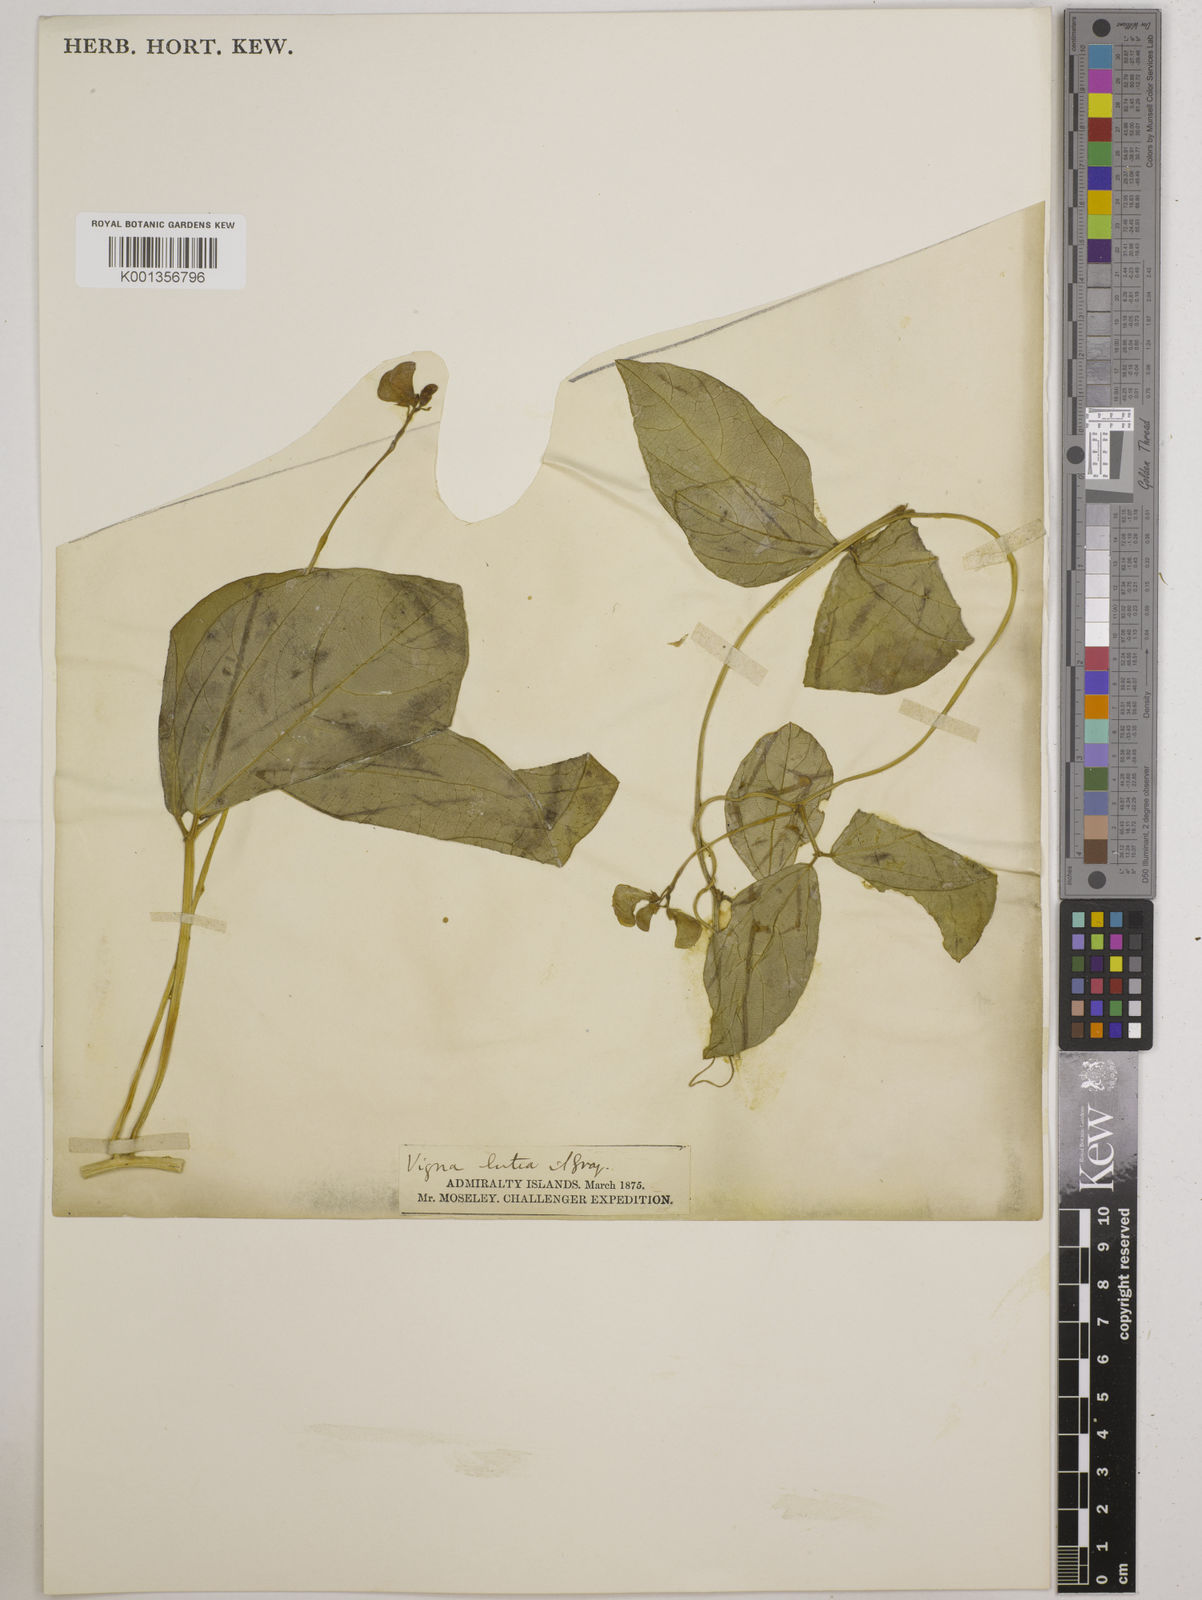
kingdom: Plantae
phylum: Tracheophyta
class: Magnoliopsida
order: Fabales
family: Fabaceae
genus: Vigna
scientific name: Vigna marina
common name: Dune-bean
